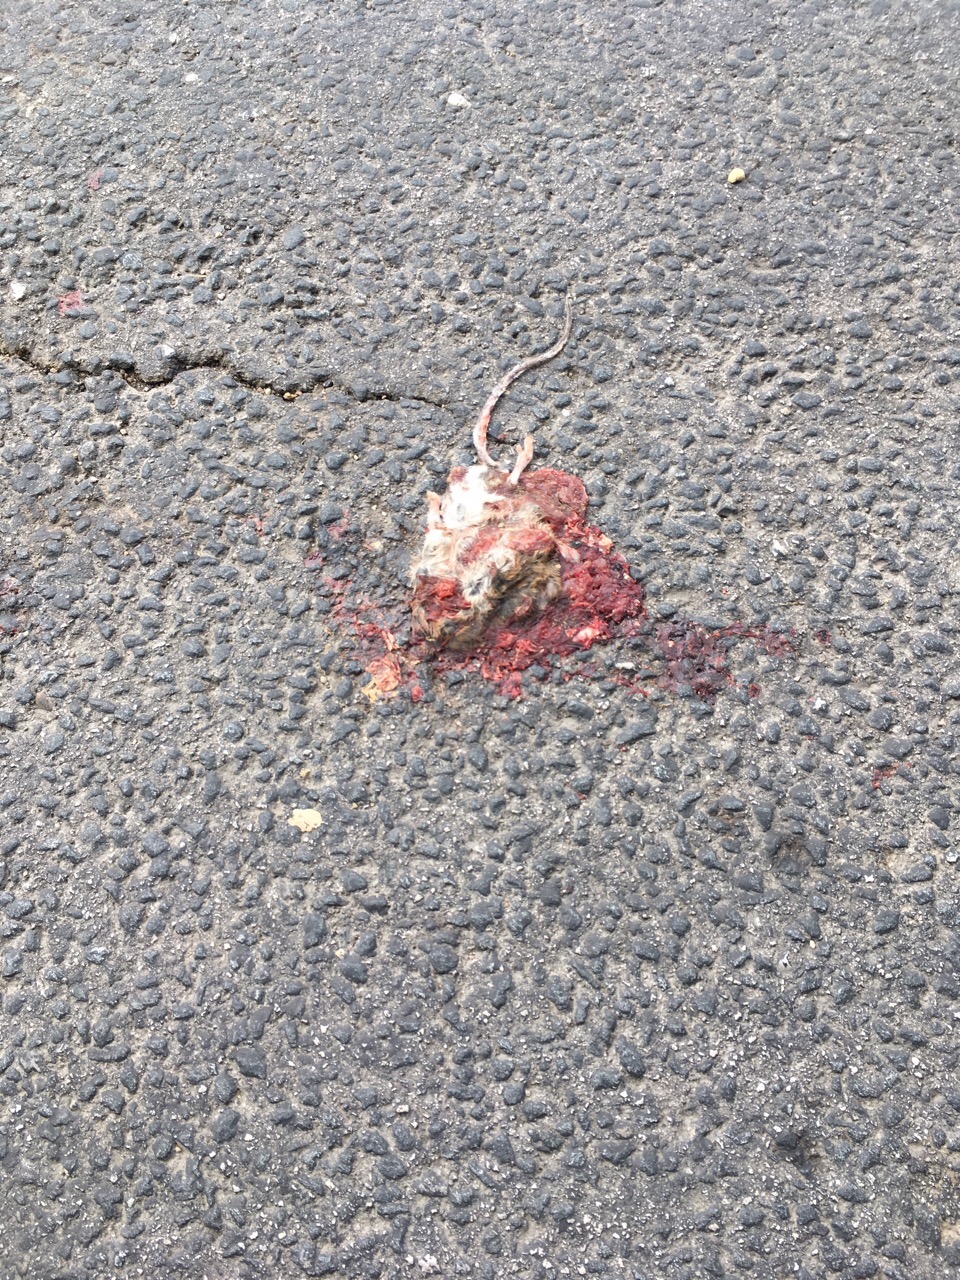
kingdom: Animalia
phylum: Chordata
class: Mammalia
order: Rodentia
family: Muridae
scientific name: Muridae
